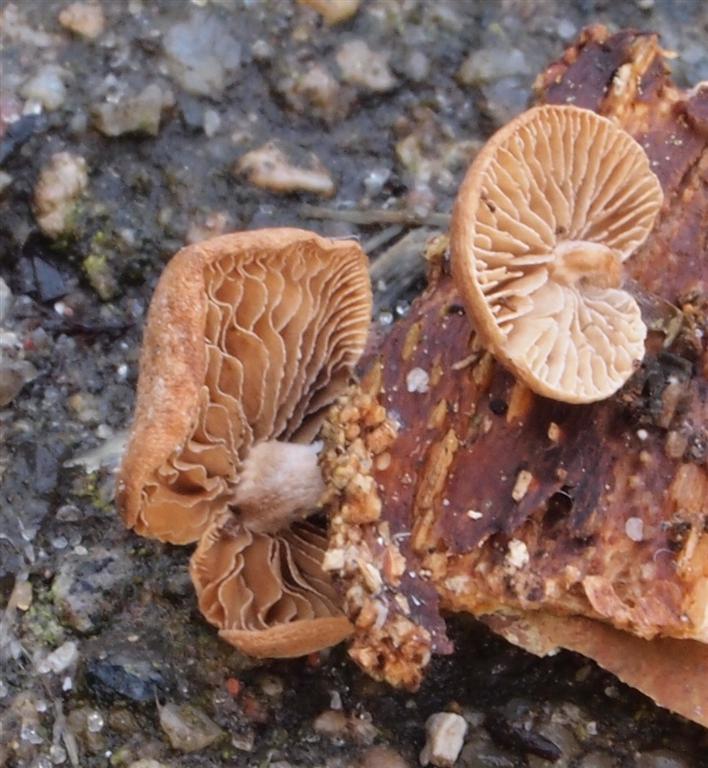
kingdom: Fungi
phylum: Basidiomycota
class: Agaricomycetes
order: Agaricales
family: Strophariaceae
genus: Deconica
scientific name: Deconica horizontalis
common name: ved-stråhat
